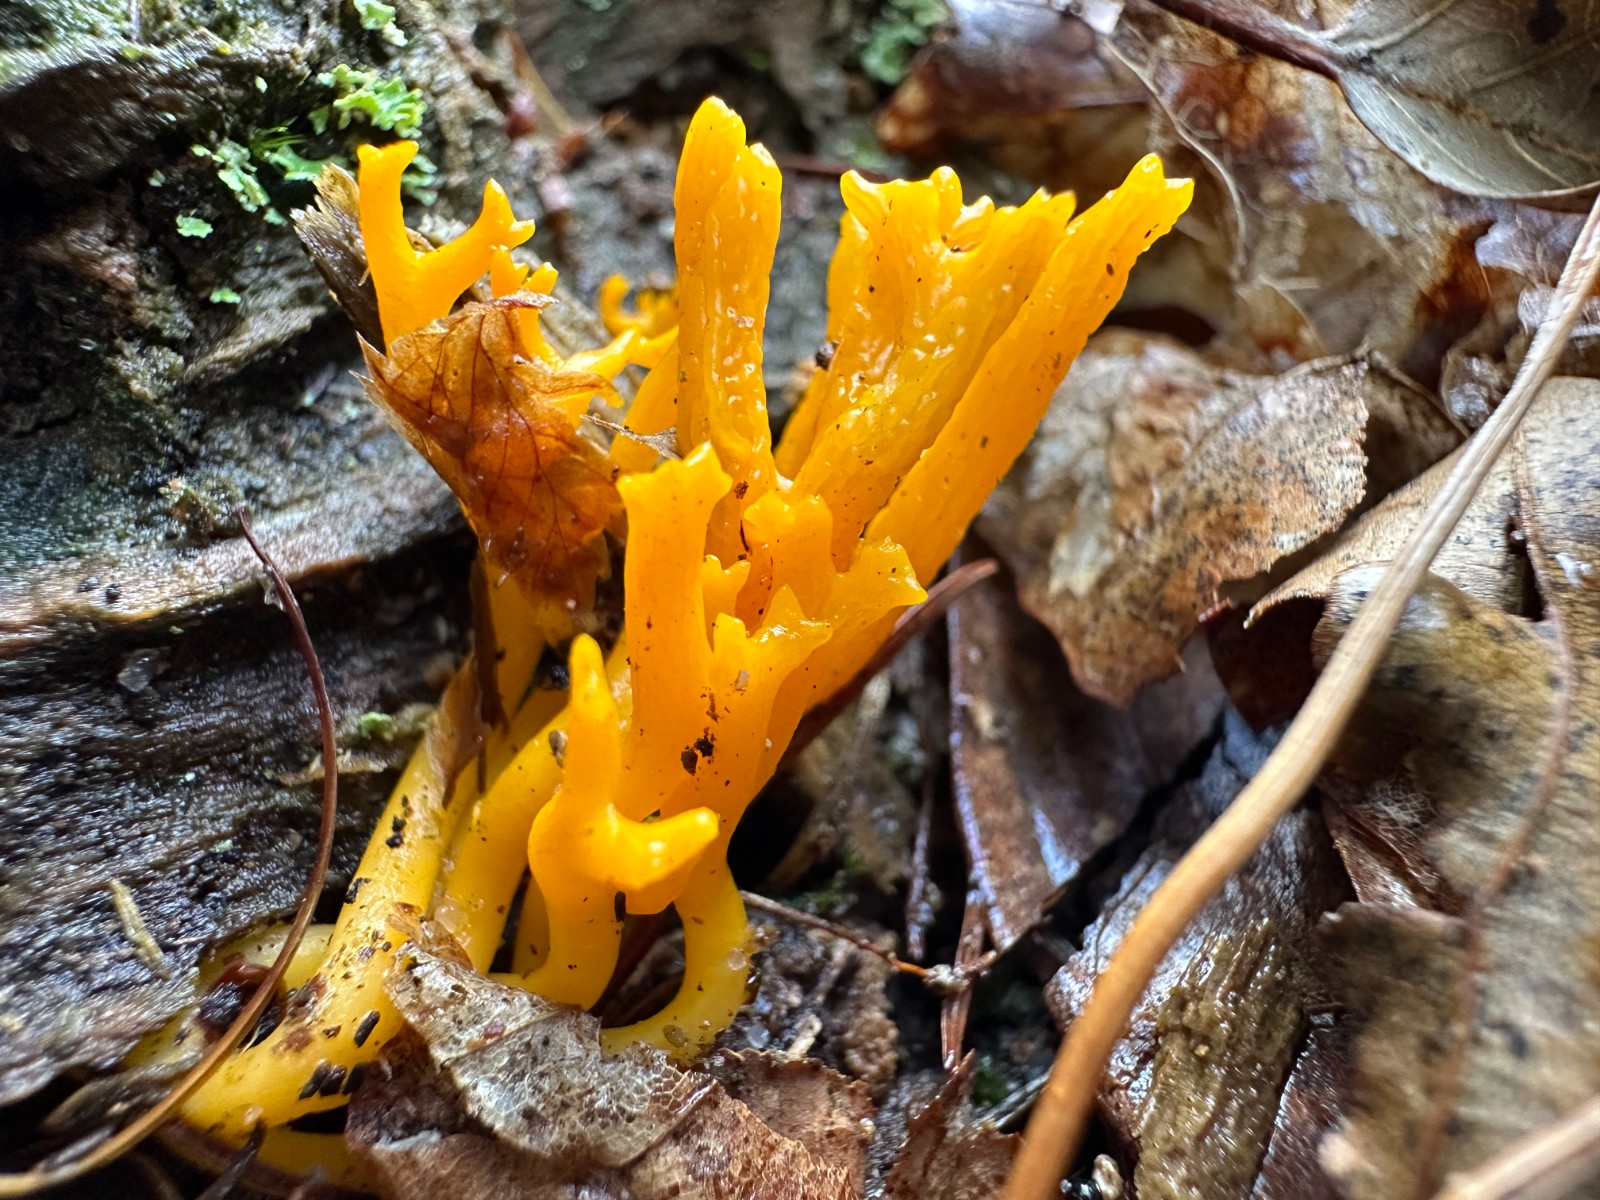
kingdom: Fungi
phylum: Basidiomycota
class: Dacrymycetes
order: Dacrymycetales
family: Dacrymycetaceae
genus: Calocera
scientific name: Calocera viscosa
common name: almindelig guldgaffel
